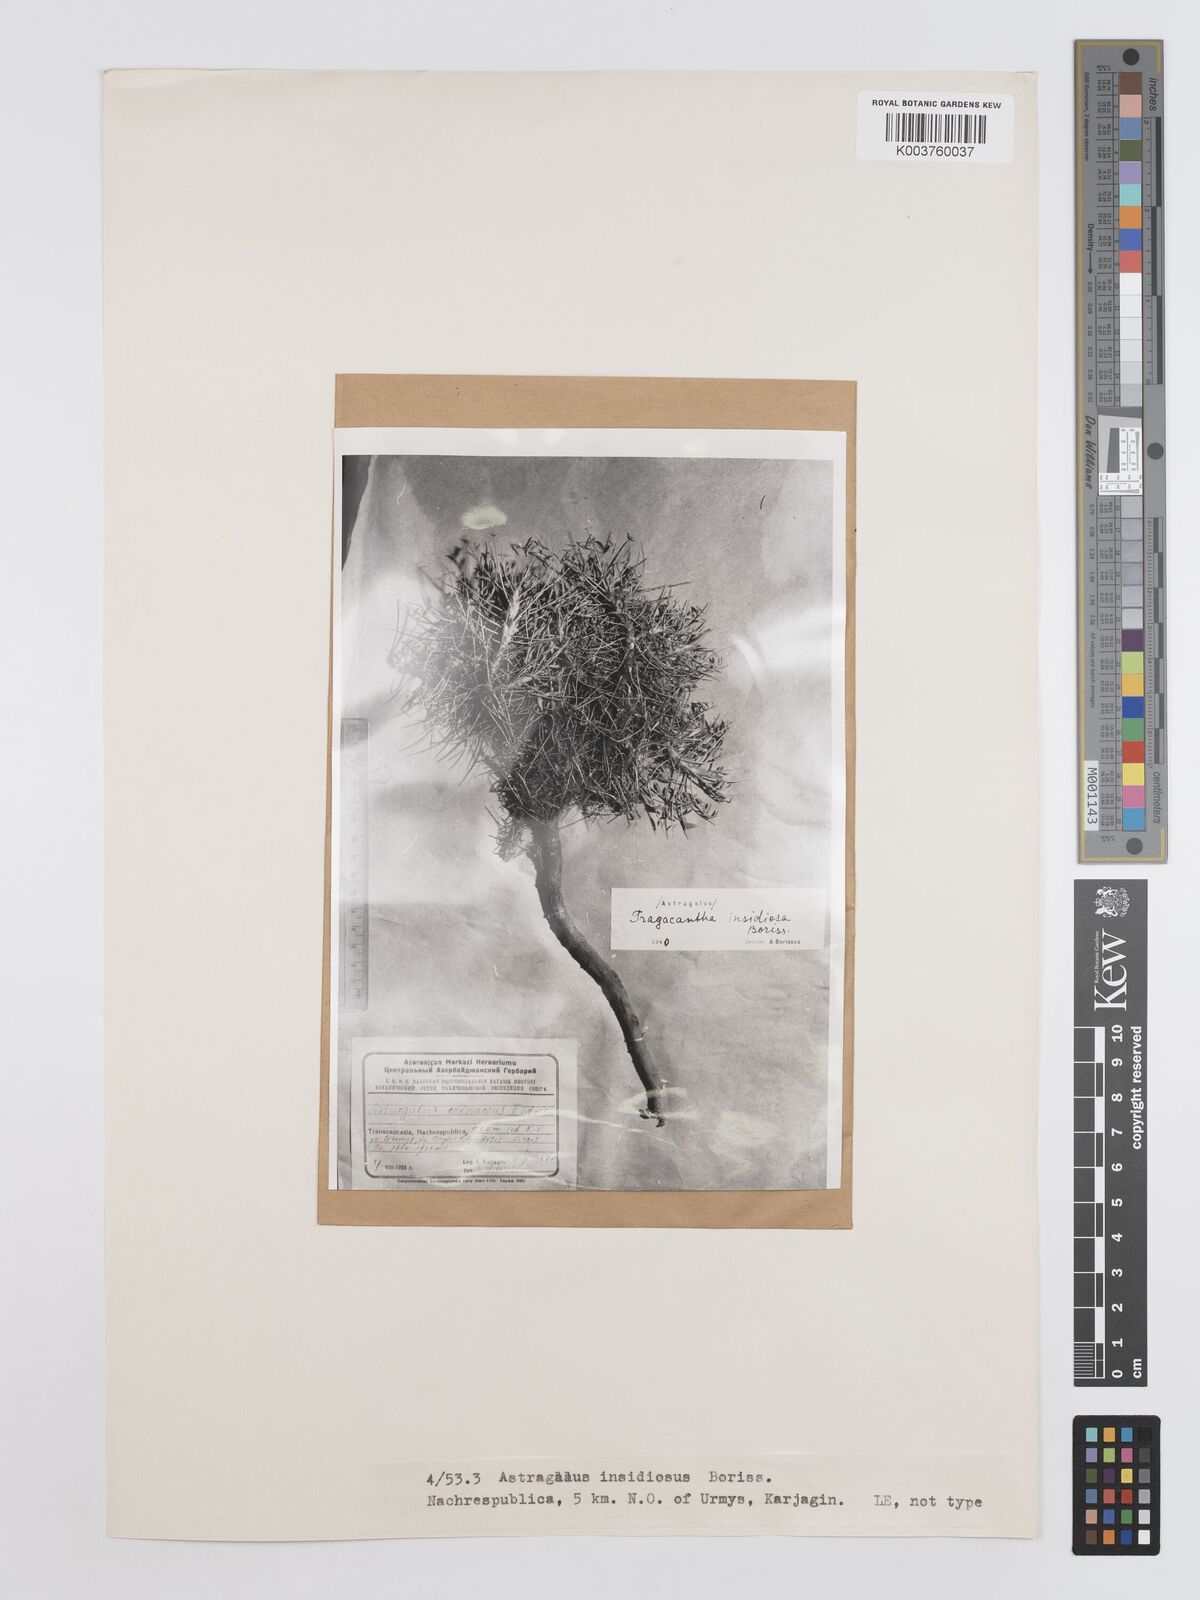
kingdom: Plantae
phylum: Tracheophyta
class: Magnoliopsida
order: Fabales
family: Fabaceae
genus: Astragalus
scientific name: Astragalus compactus
